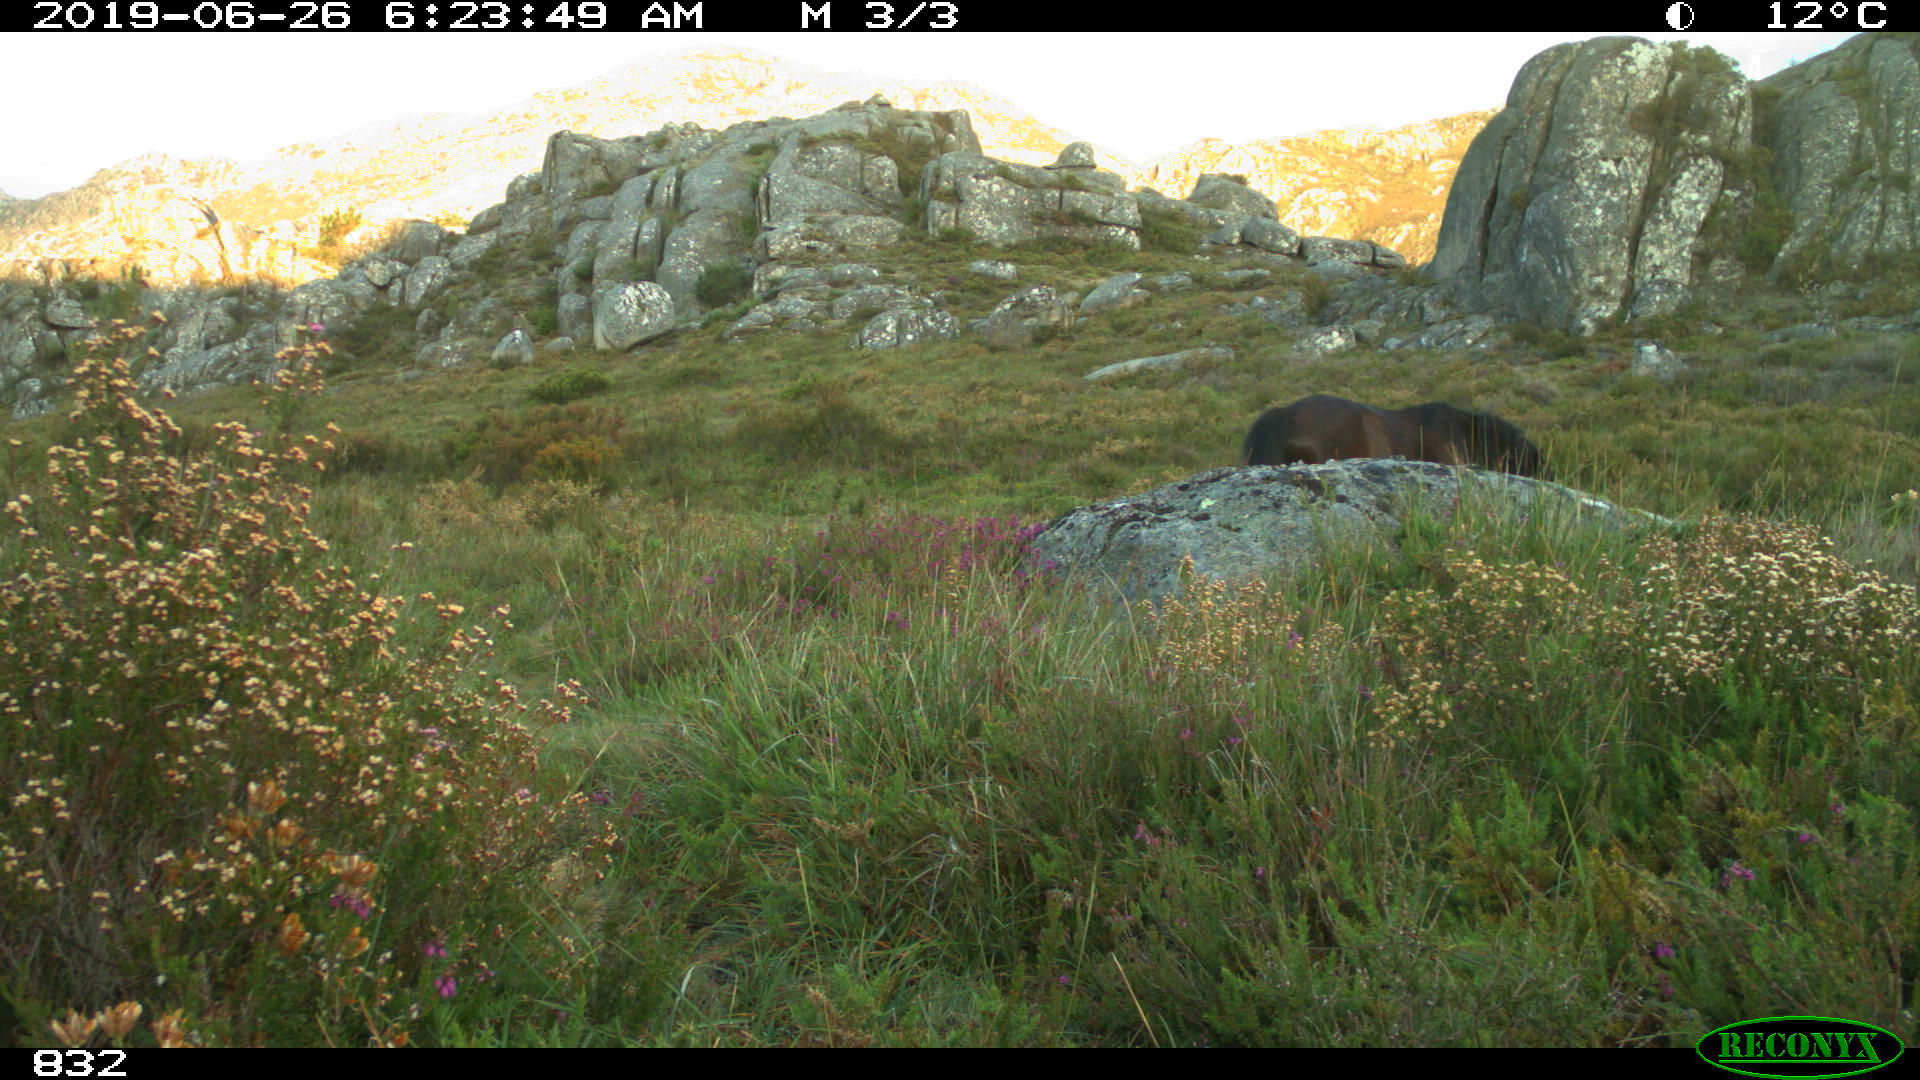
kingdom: Animalia
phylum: Chordata
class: Mammalia
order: Perissodactyla
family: Equidae
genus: Equus
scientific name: Equus caballus
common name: Horse
